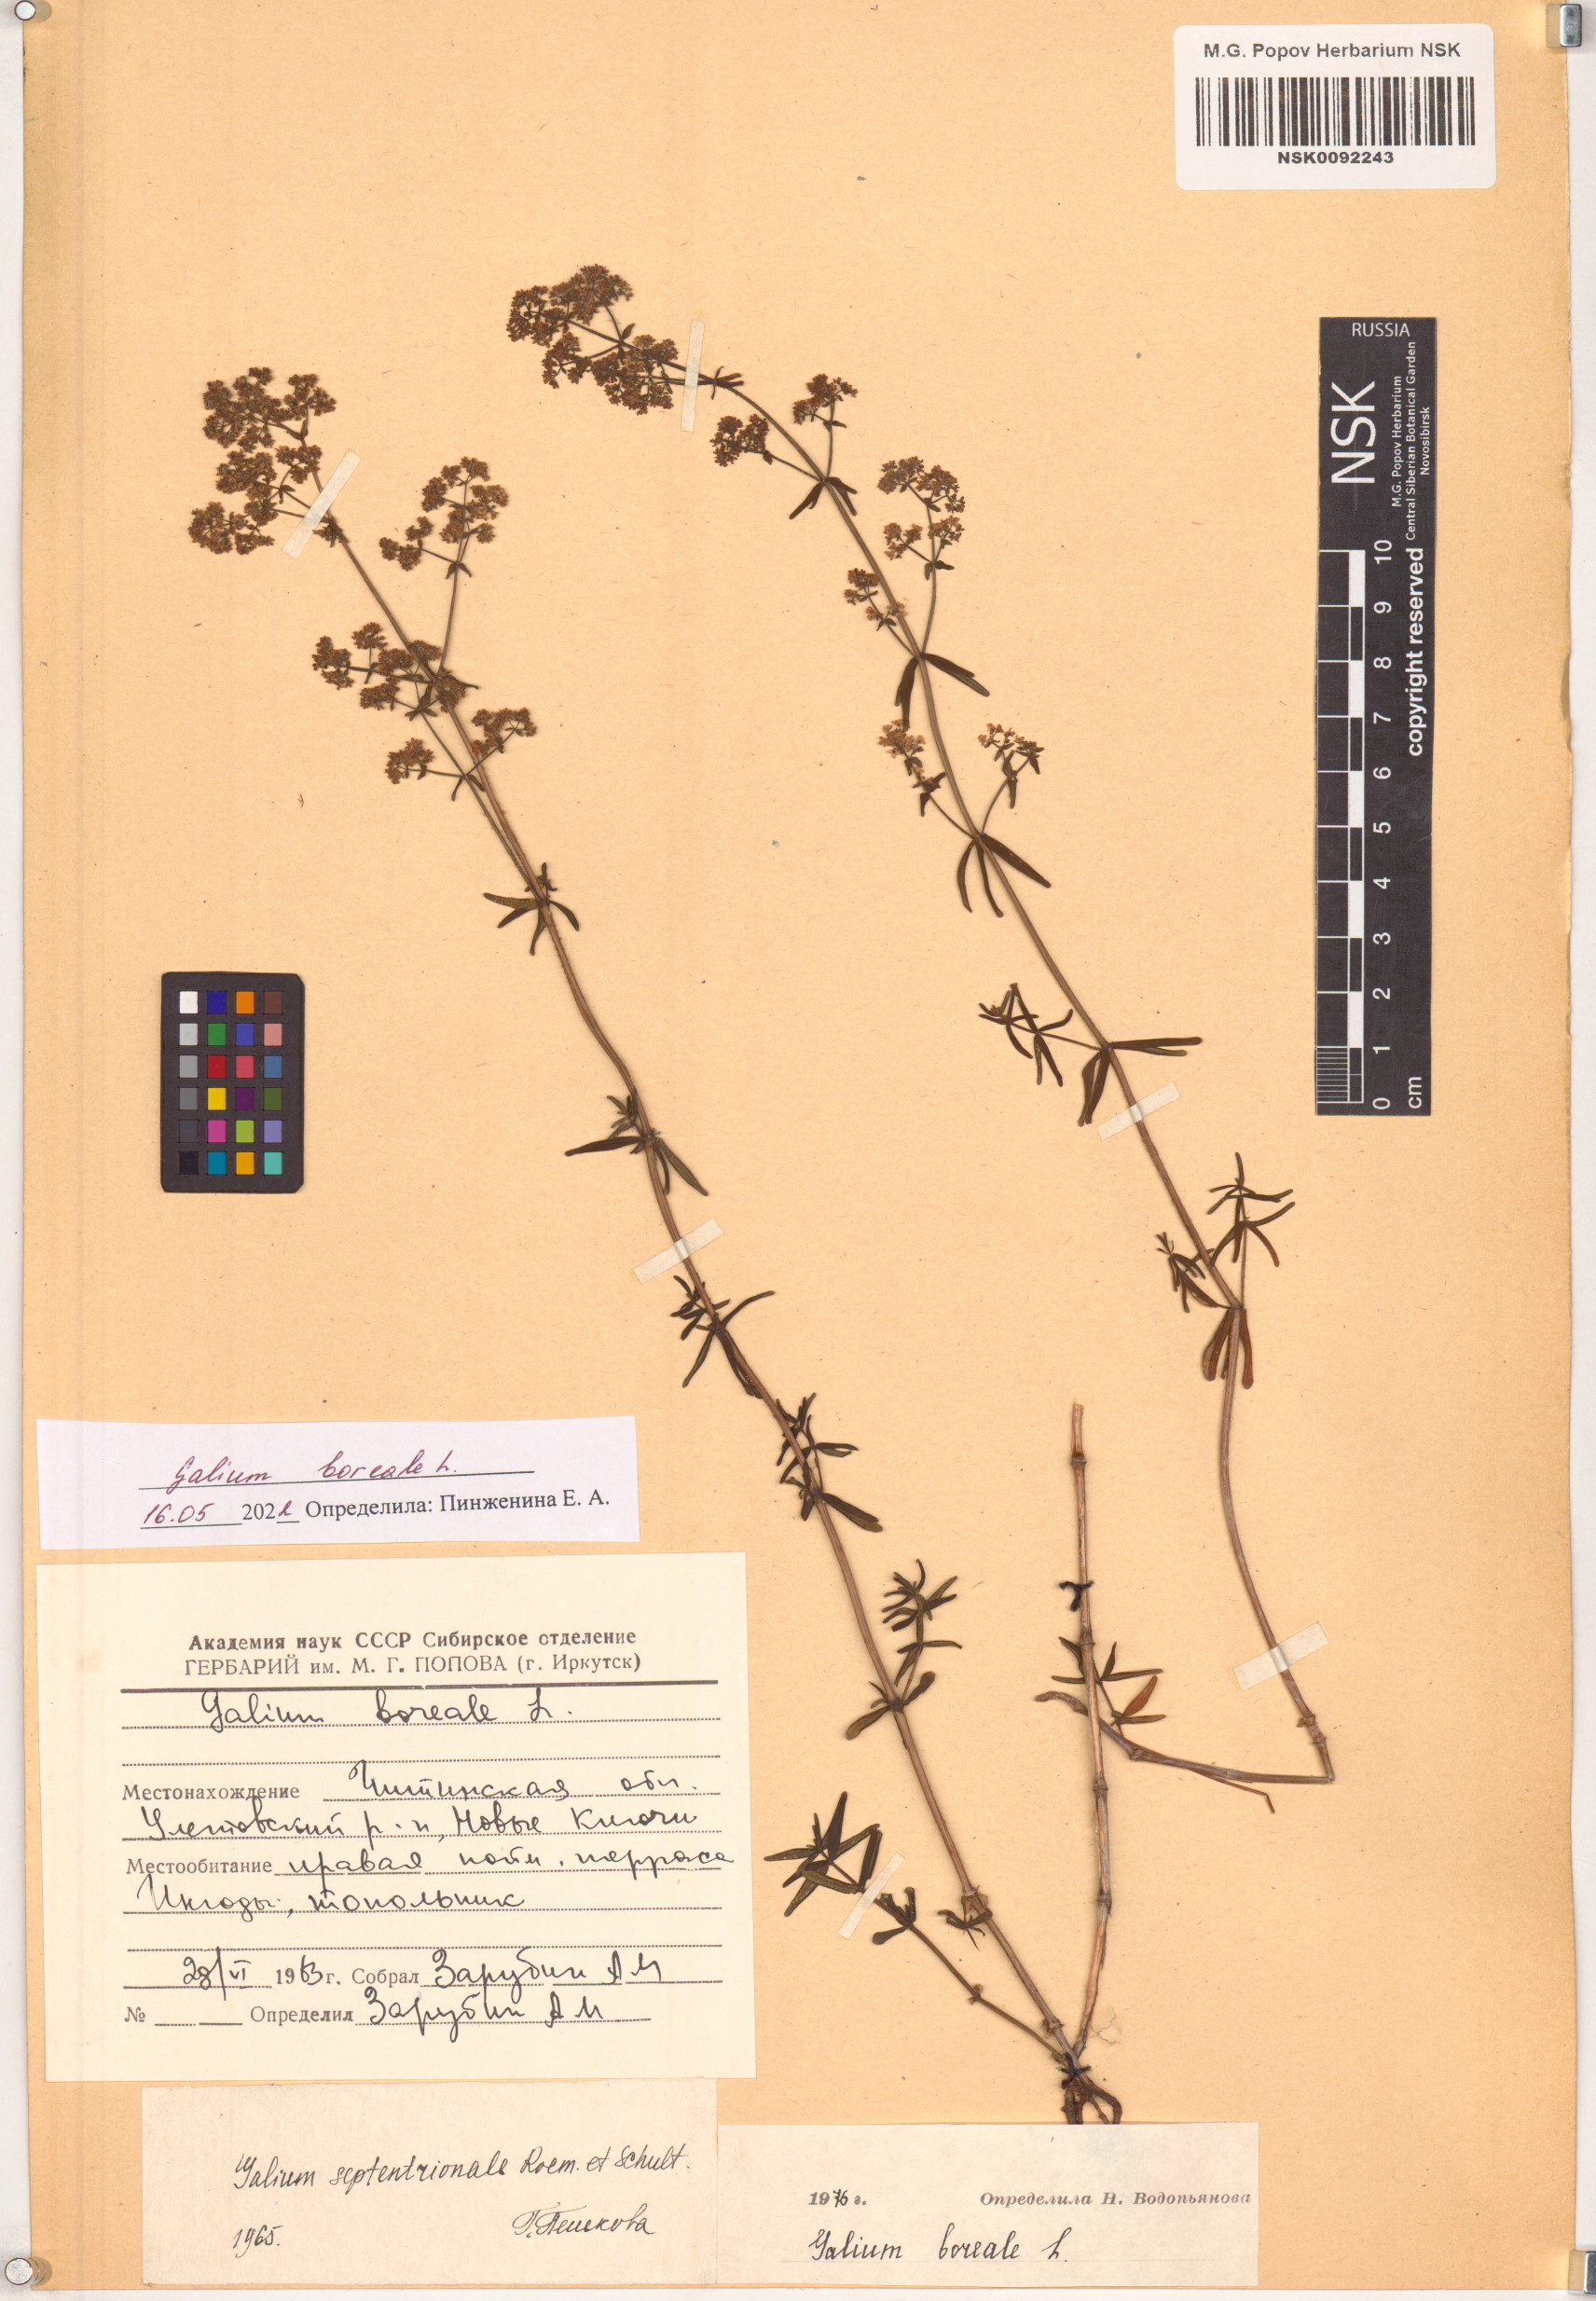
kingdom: Plantae
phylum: Tracheophyta
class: Magnoliopsida
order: Gentianales
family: Rubiaceae
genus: Galium
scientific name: Galium boreale
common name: Northern bedstraw
